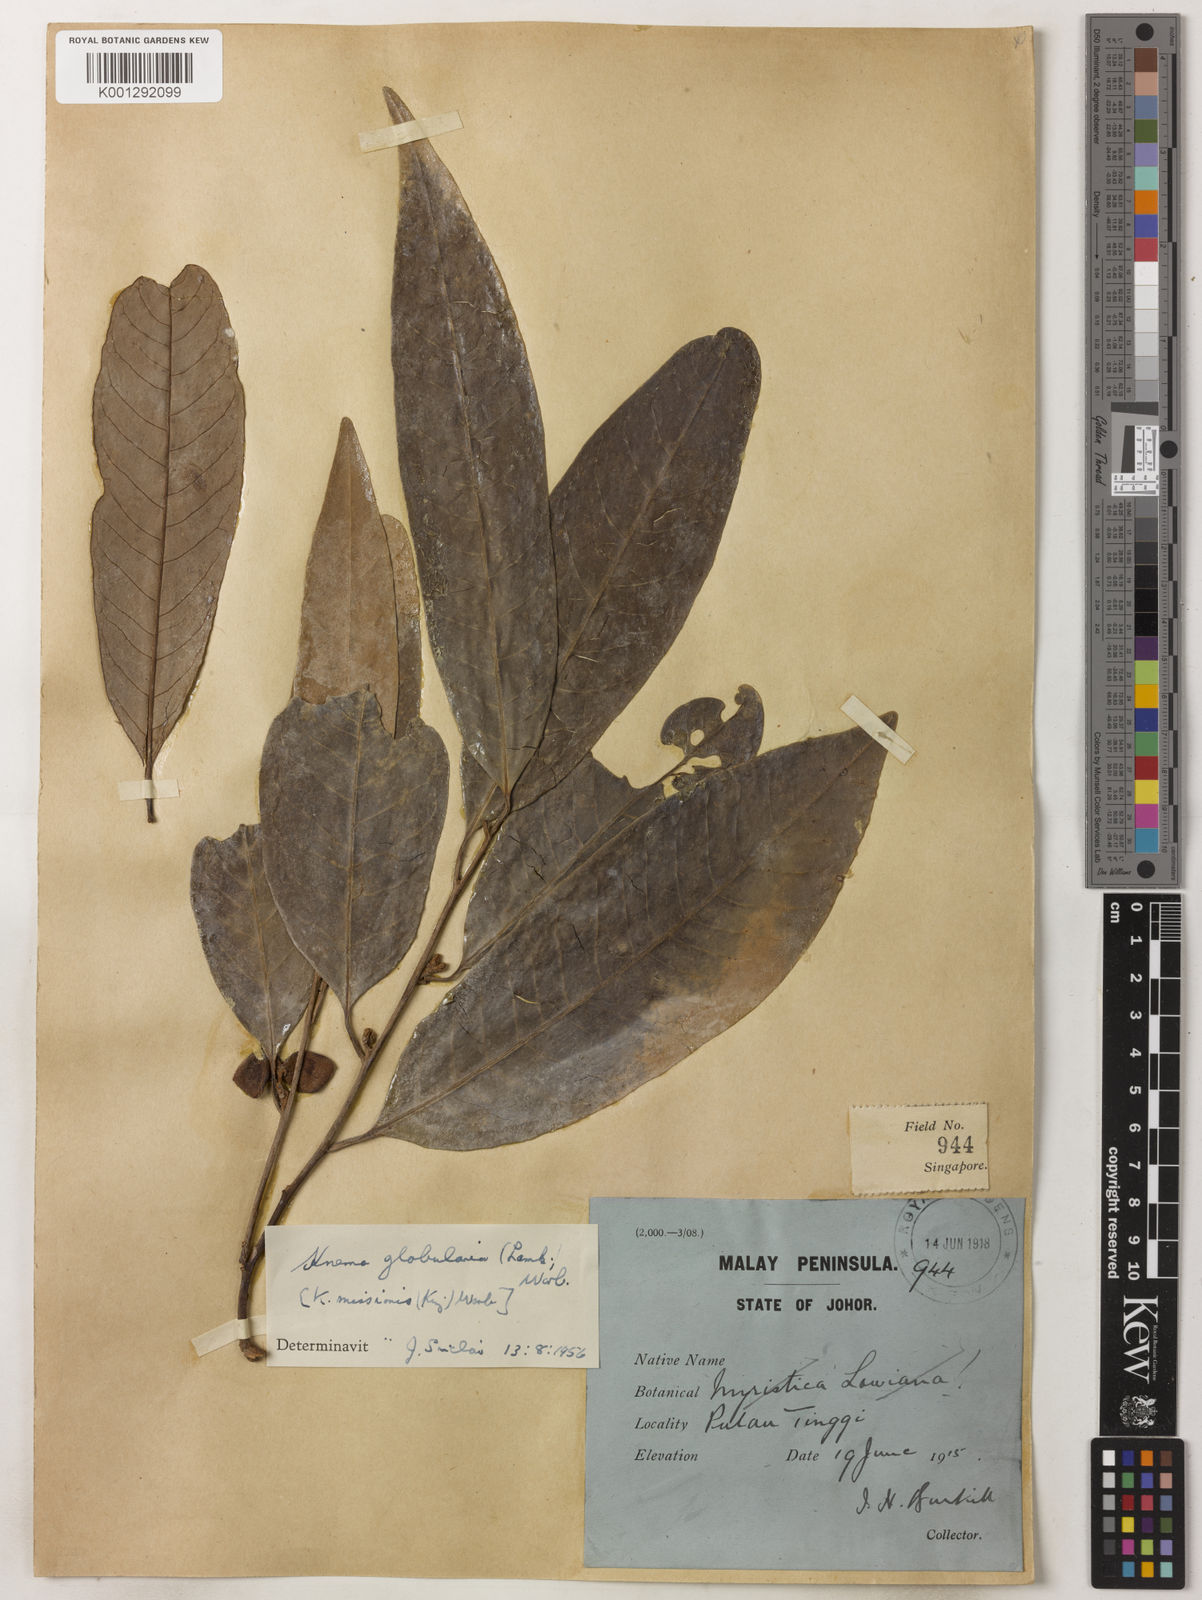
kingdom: Plantae
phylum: Tracheophyta
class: Magnoliopsida
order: Magnoliales
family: Myristicaceae
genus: Knema
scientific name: Knema globularia
